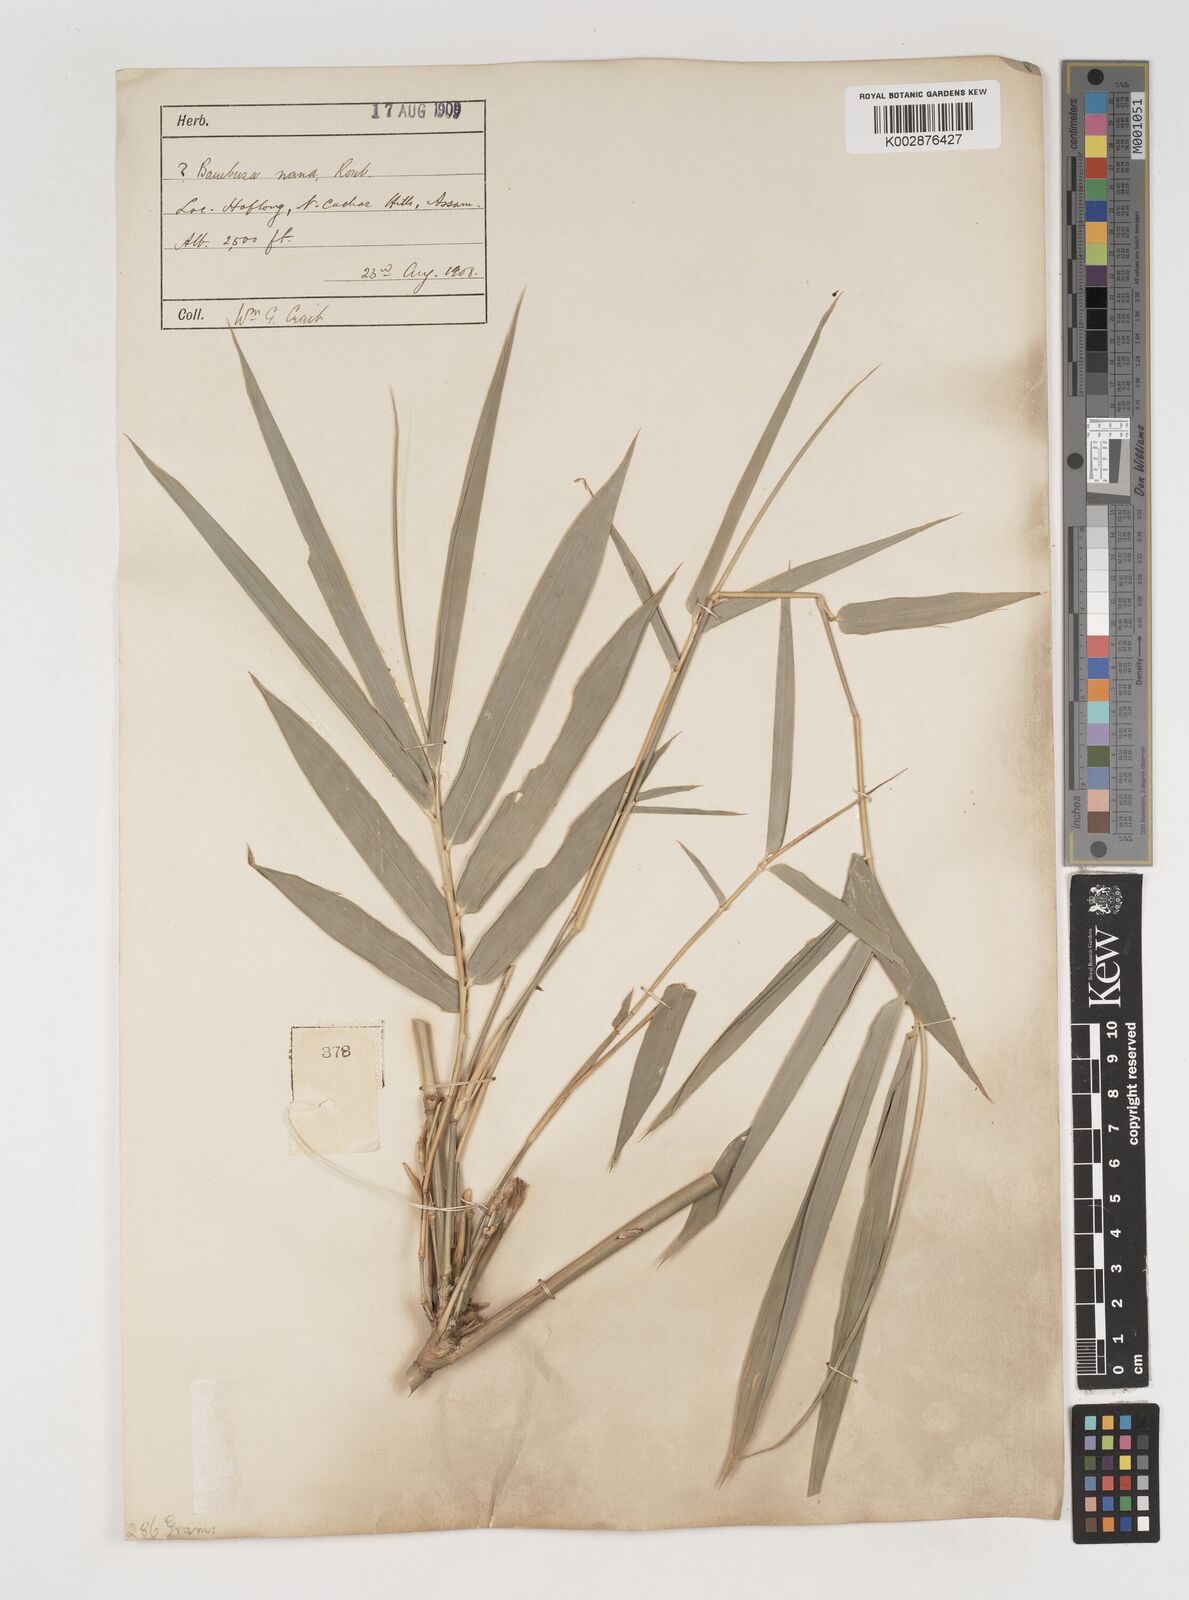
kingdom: Plantae
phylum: Tracheophyta
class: Liliopsida
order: Poales
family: Poaceae
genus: Bambusa
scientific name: Bambusa multiplex
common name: Hedge bamboo
